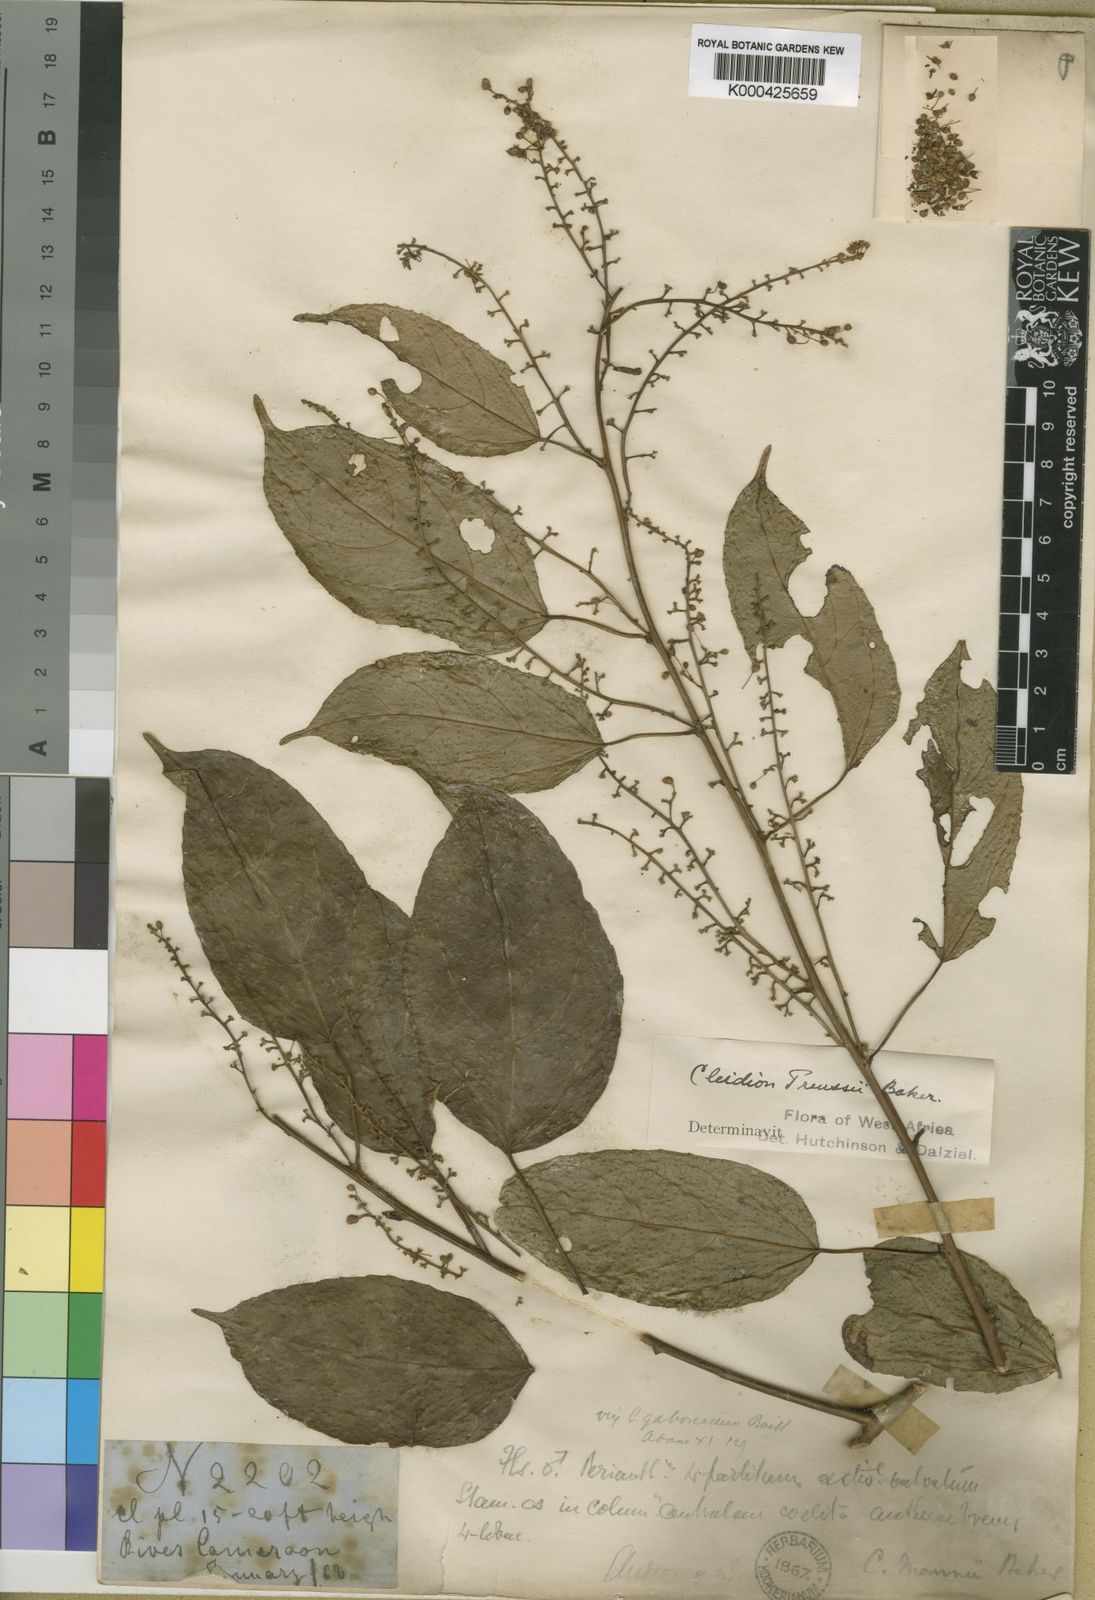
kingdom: Plantae
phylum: Tracheophyta
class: Magnoliopsida
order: Malpighiales
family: Euphorbiaceae
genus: Plukenetia
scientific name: Plukenetia
